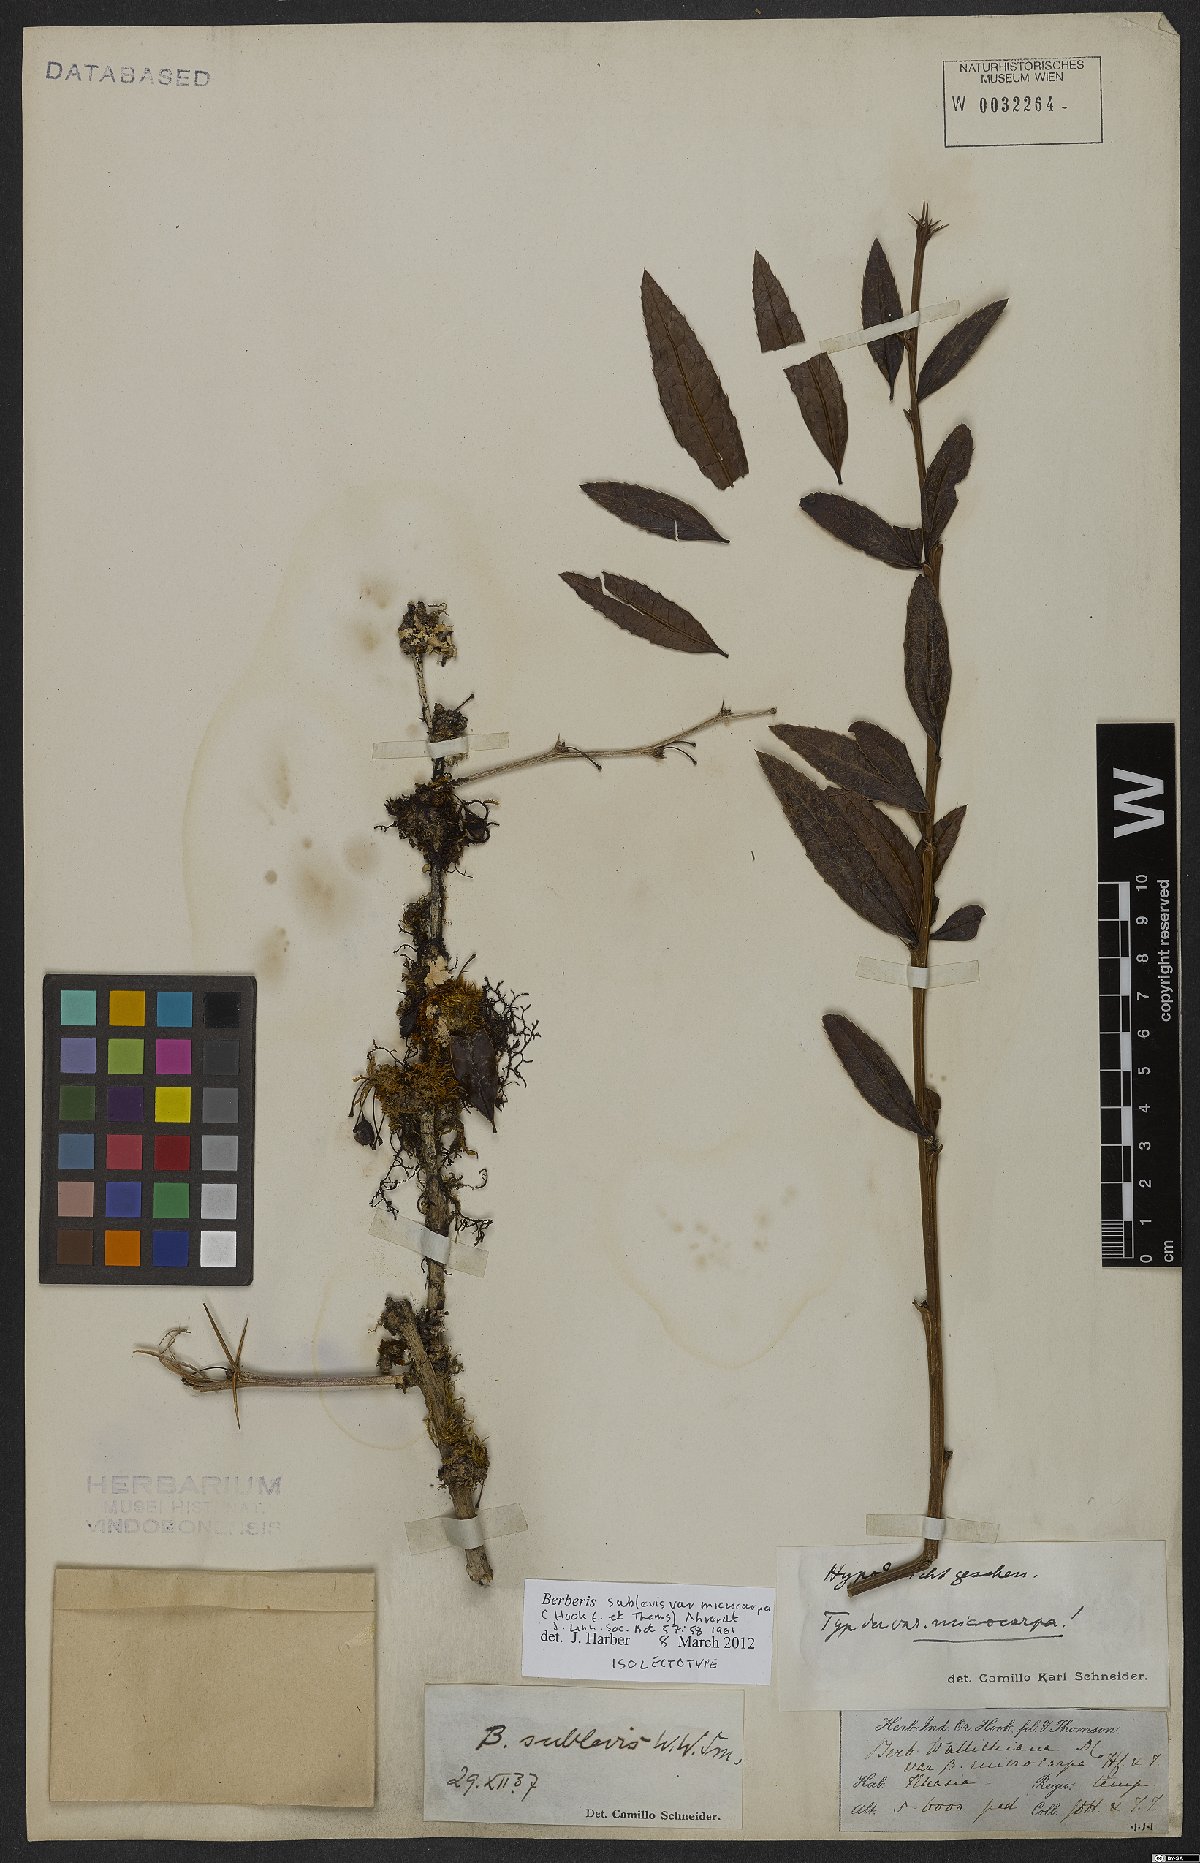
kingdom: Plantae
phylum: Tracheophyta
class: Magnoliopsida
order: Ranunculales
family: Berberidaceae
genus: Berberis
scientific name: Berberis sublevis
